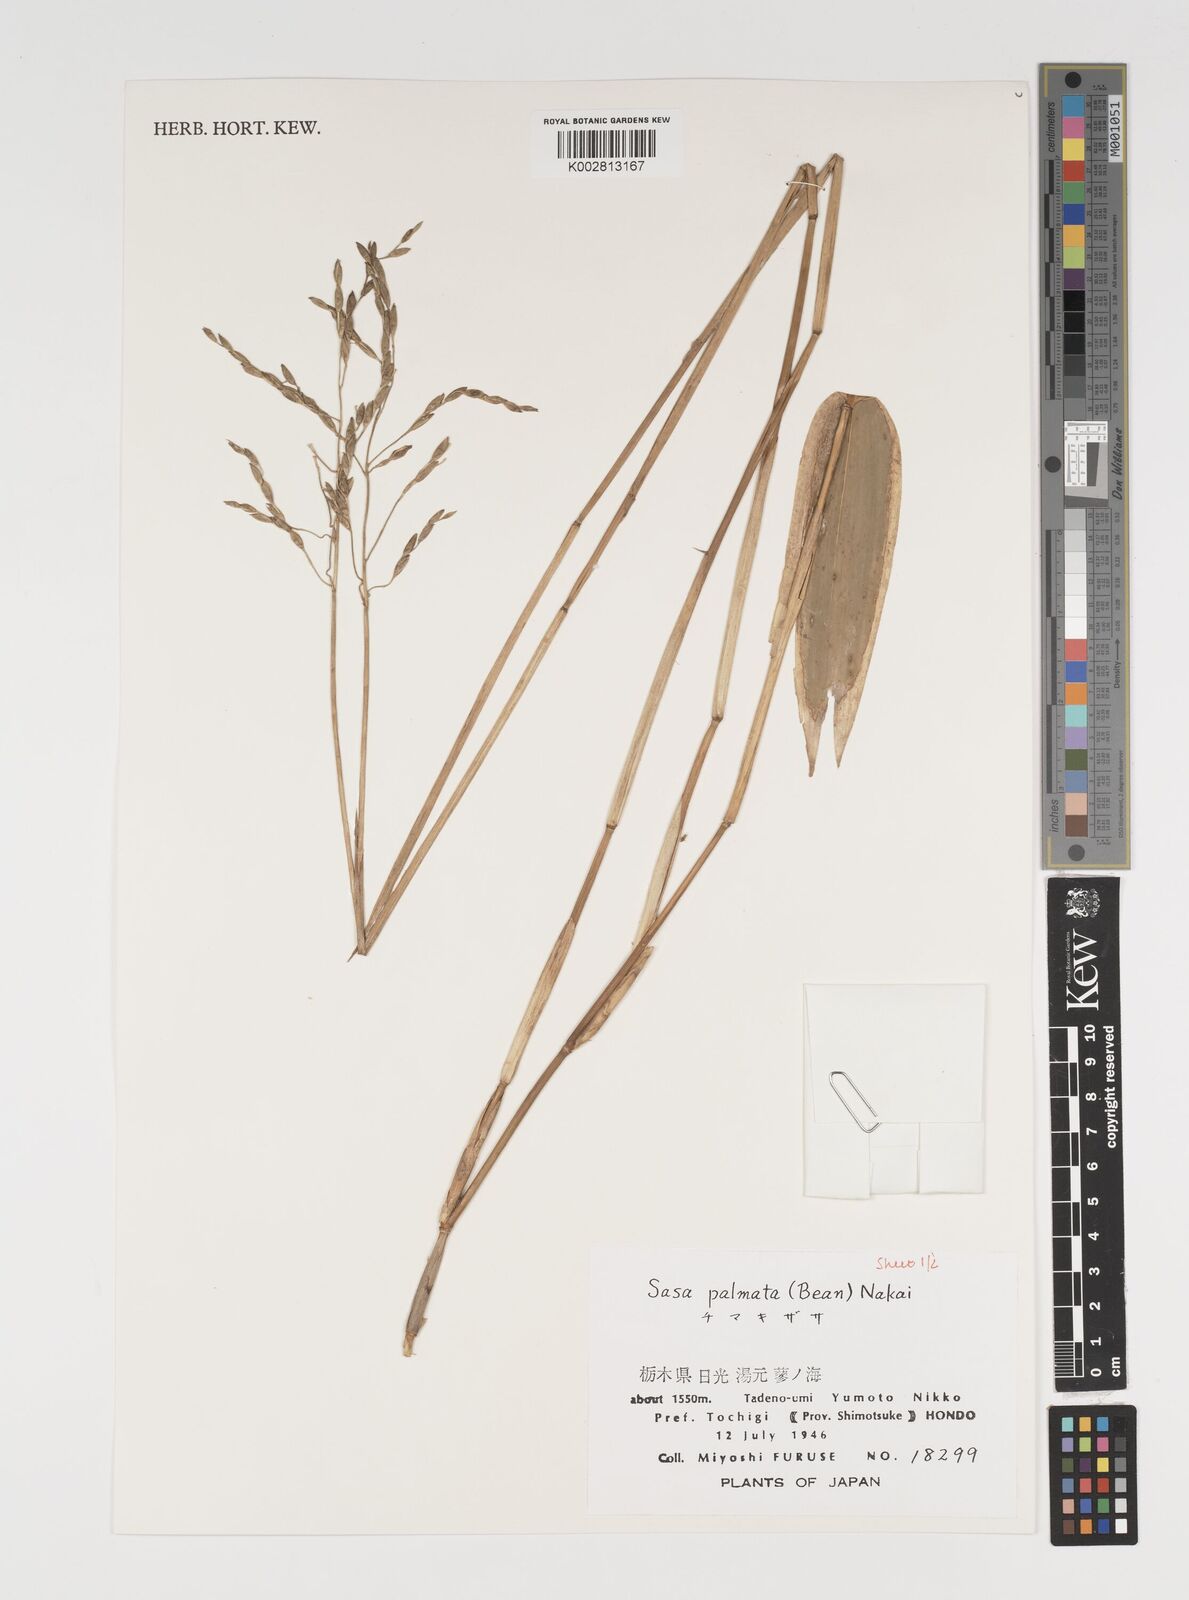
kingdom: Plantae
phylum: Tracheophyta
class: Liliopsida
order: Poales
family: Poaceae
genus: Sasa
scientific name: Sasa palmata
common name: Broad-leaved bamboo
